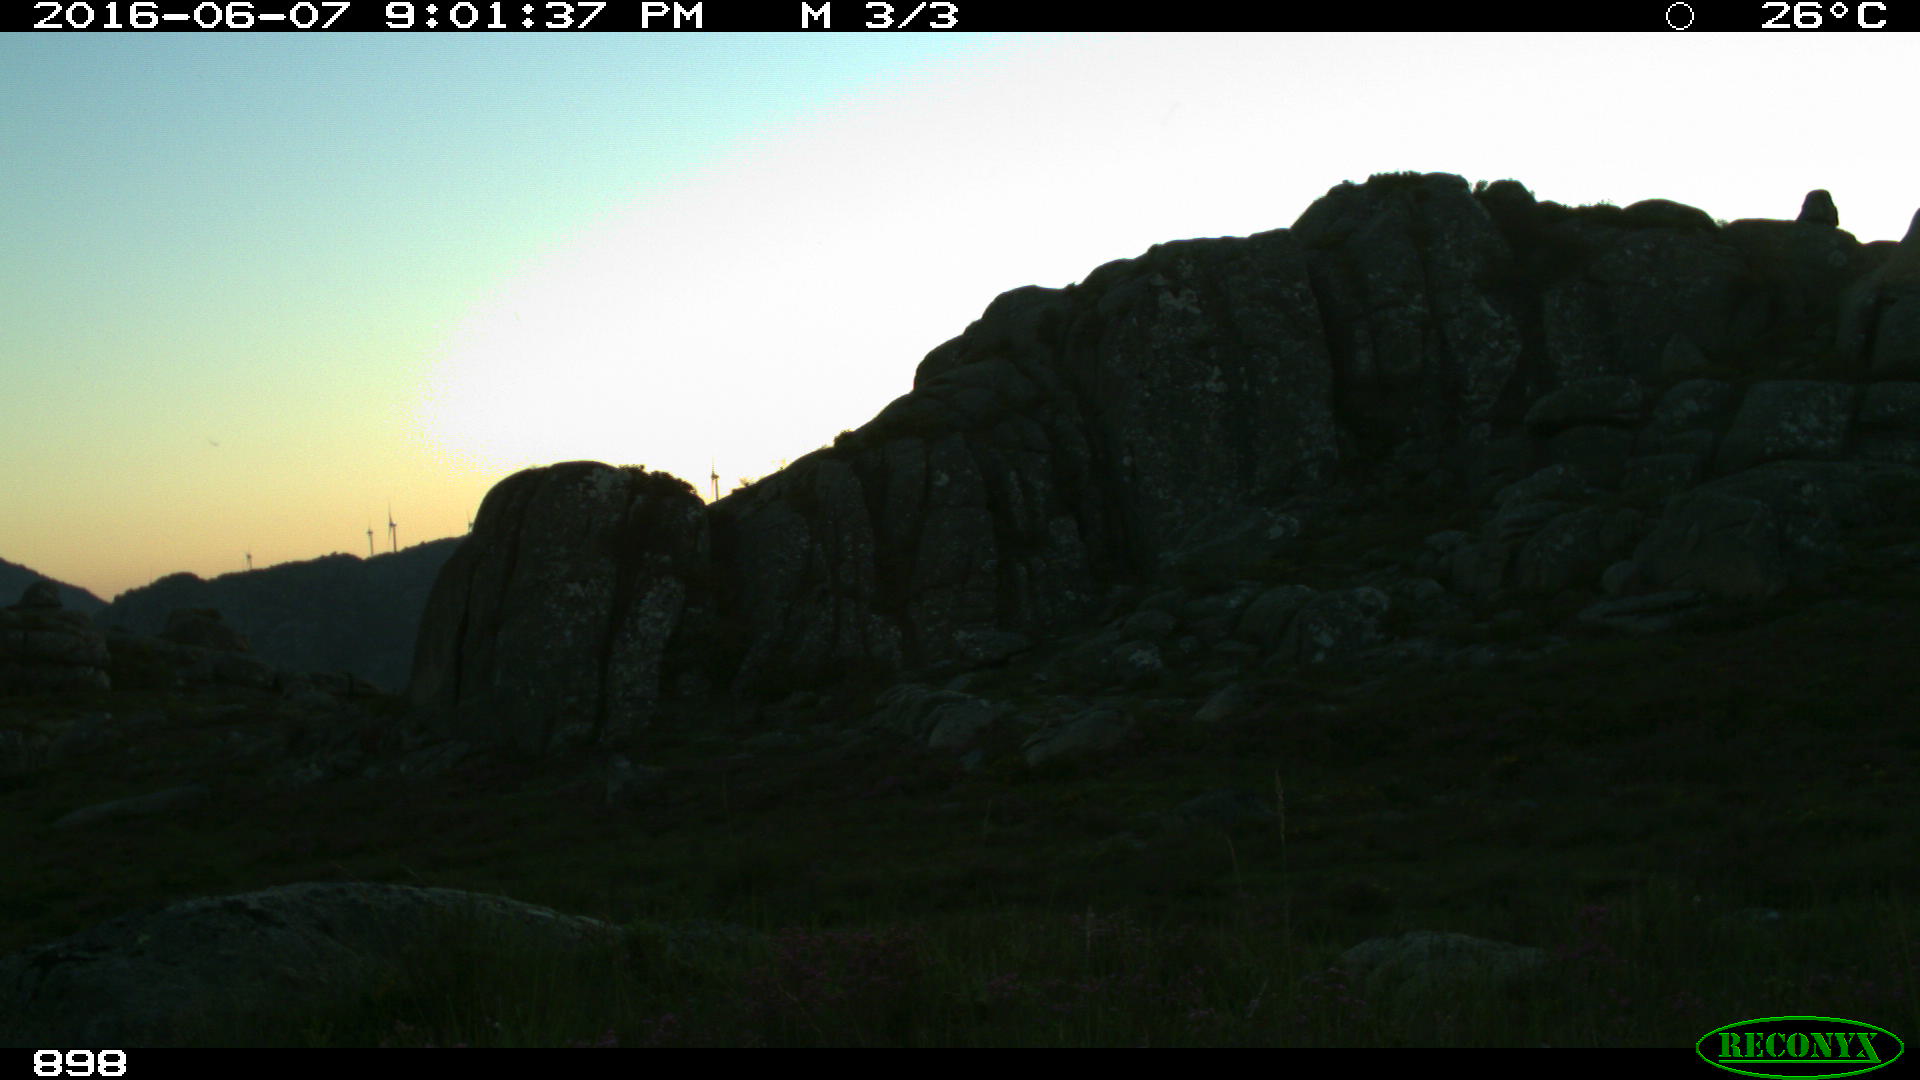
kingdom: Animalia
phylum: Chordata
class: Mammalia
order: Artiodactyla
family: Bovidae
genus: Bos
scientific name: Bos taurus
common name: Domesticated cattle
